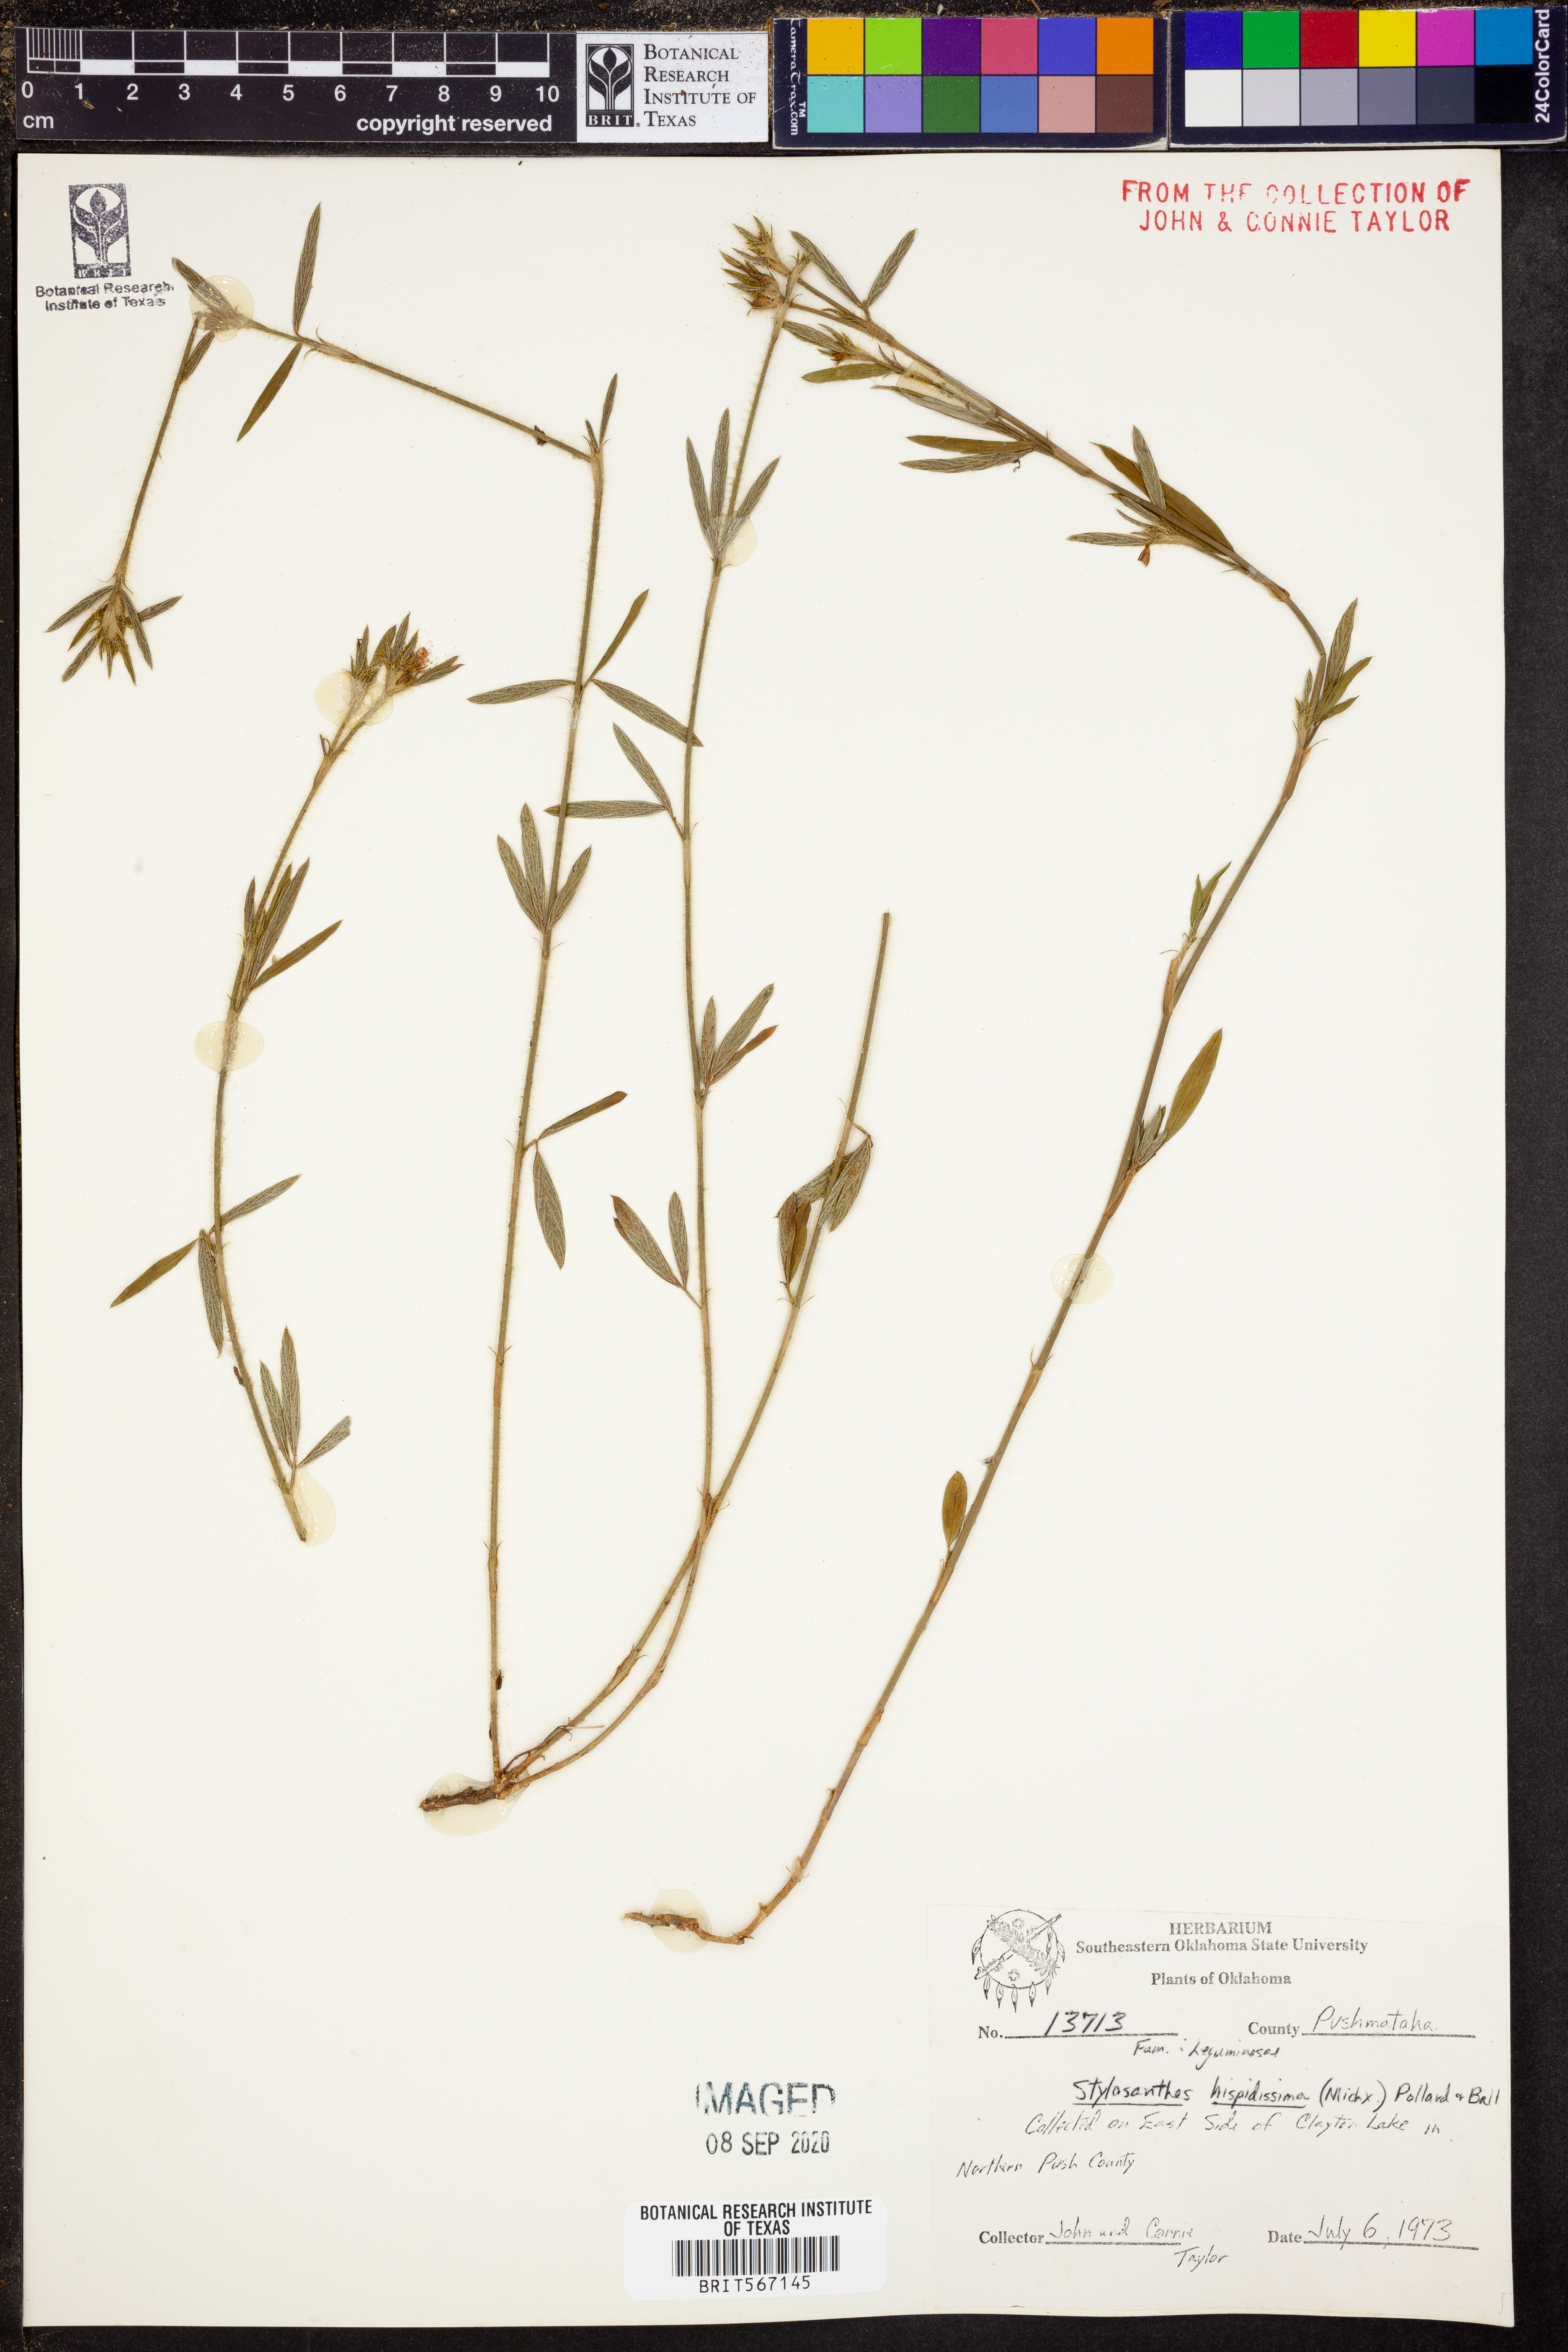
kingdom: Plantae
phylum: Tracheophyta
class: Magnoliopsida
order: Fabales
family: Fabaceae
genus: Stylosanthes
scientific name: Stylosanthes biflora
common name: Two-flower pencil-flower
